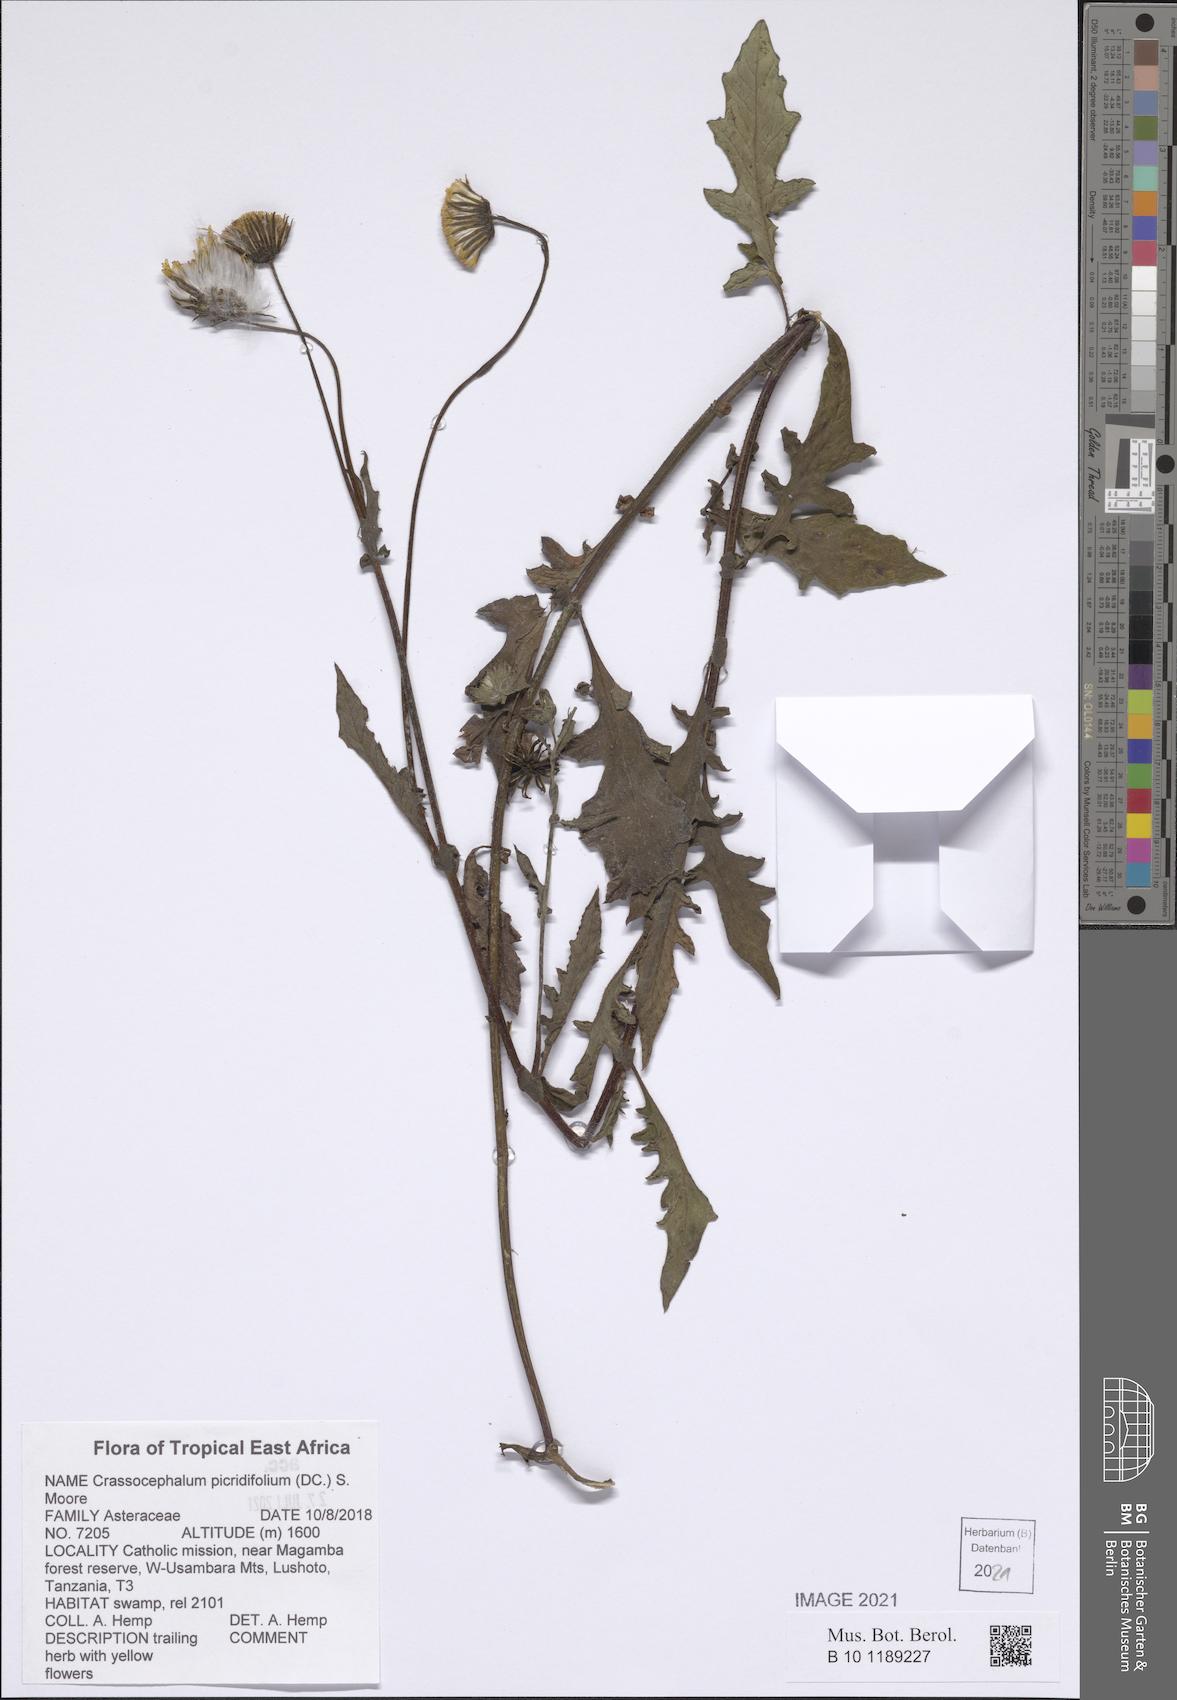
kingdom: Plantae
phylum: Tracheophyta
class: Magnoliopsida
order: Asterales
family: Asteraceae
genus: Crassocephalum
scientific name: Crassocephalum picridifolium
